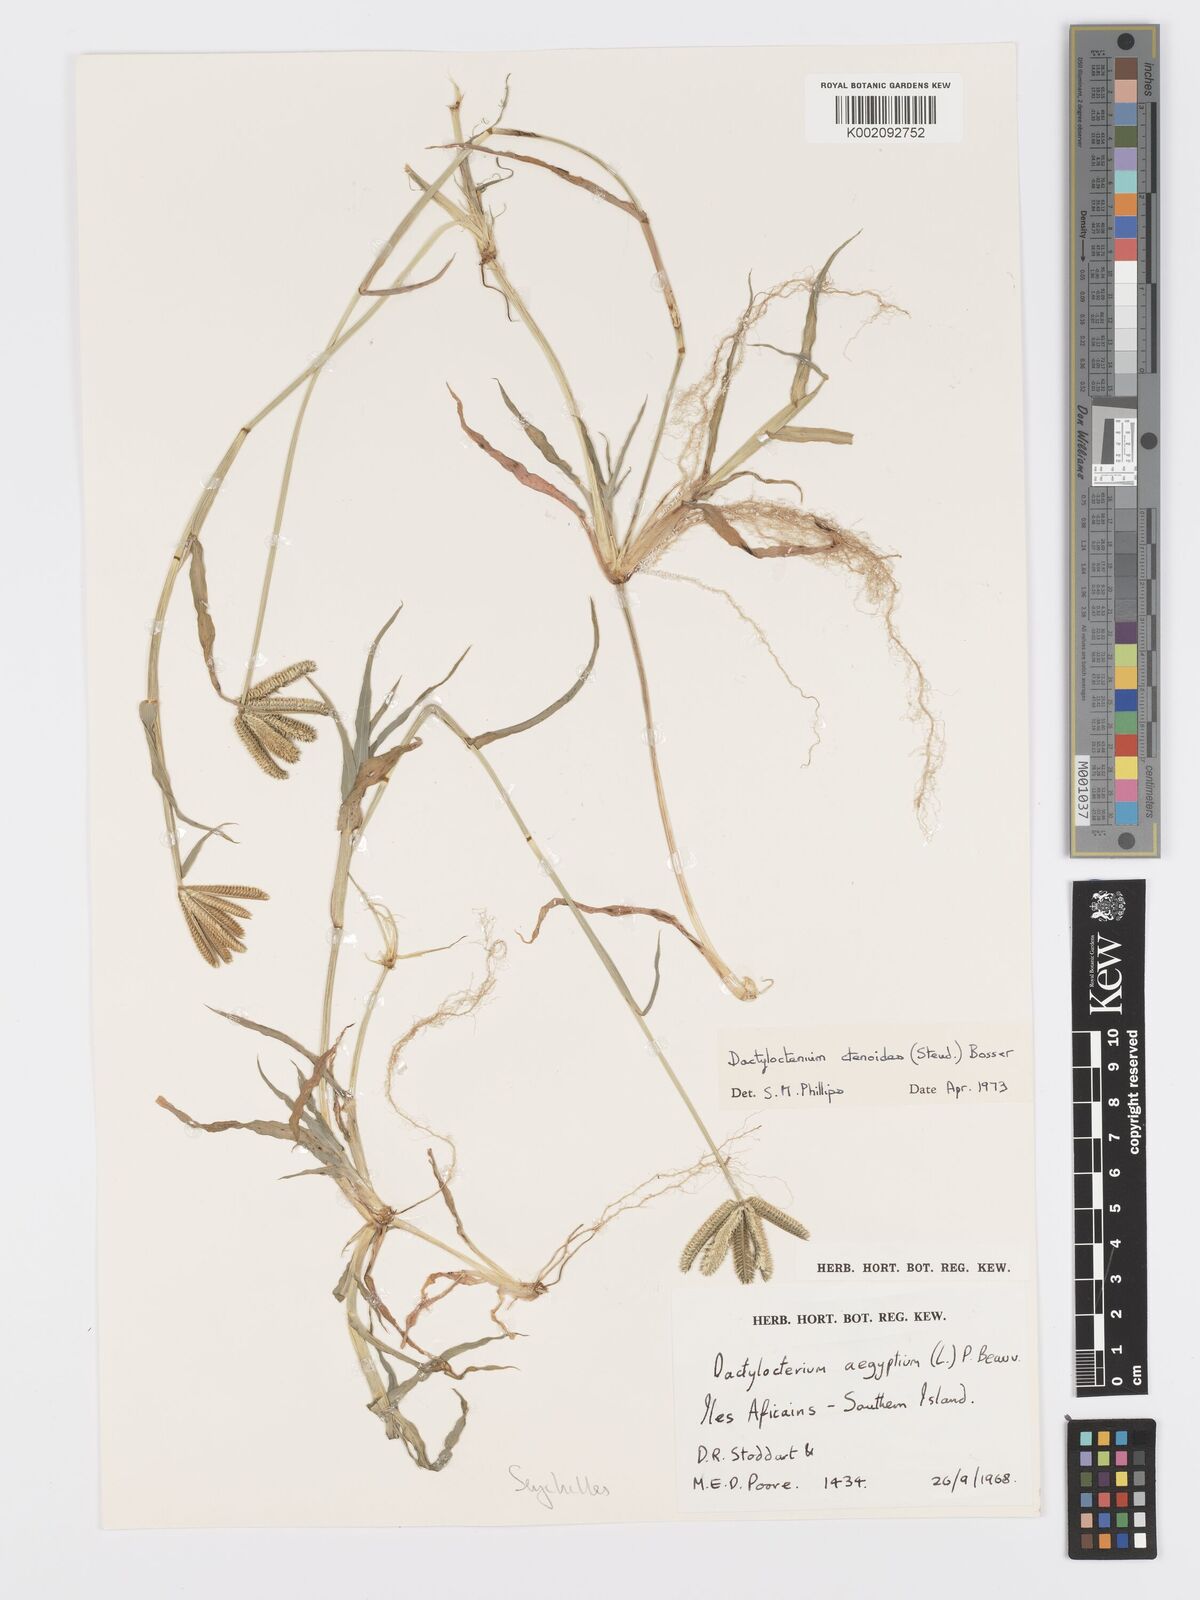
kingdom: Plantae
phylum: Tracheophyta
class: Liliopsida
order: Poales
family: Poaceae
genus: Dactyloctenium
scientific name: Dactyloctenium ctenoides
